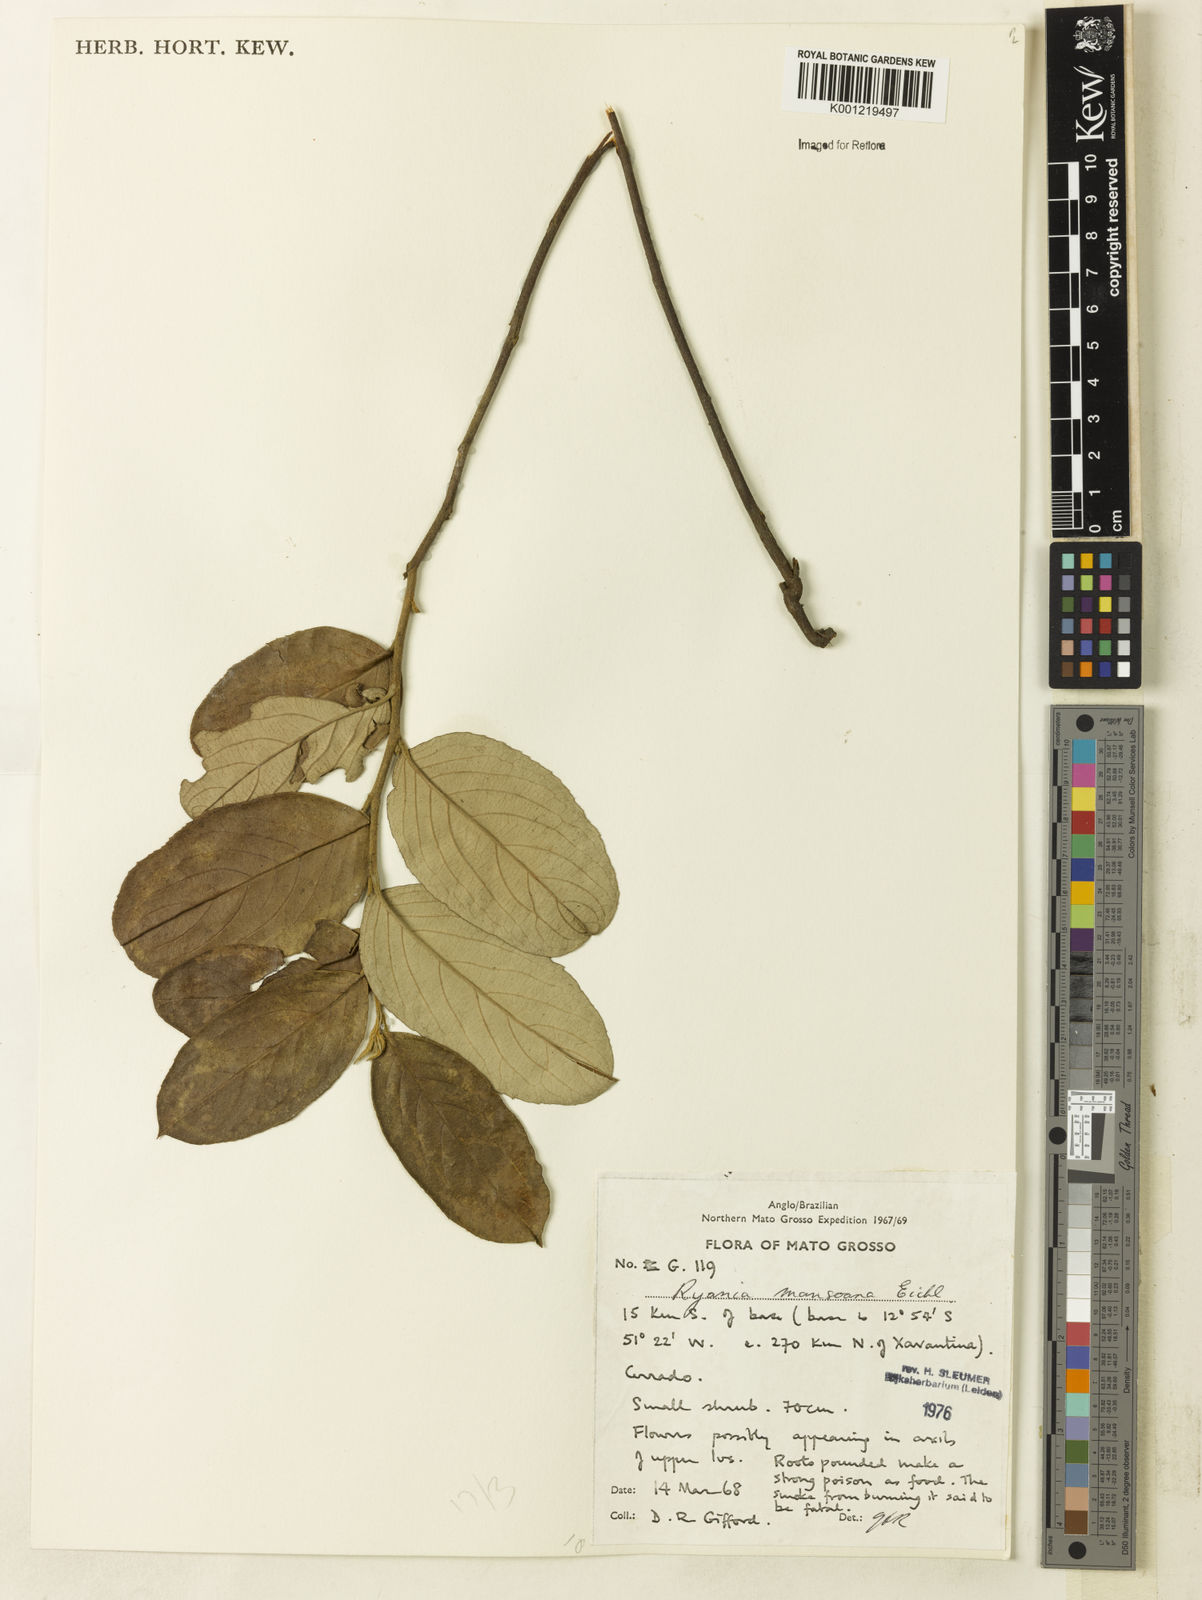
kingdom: Plantae
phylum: Tracheophyta
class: Magnoliopsida
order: Malpighiales
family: Salicaceae
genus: Ryania
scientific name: Ryania mansoana
